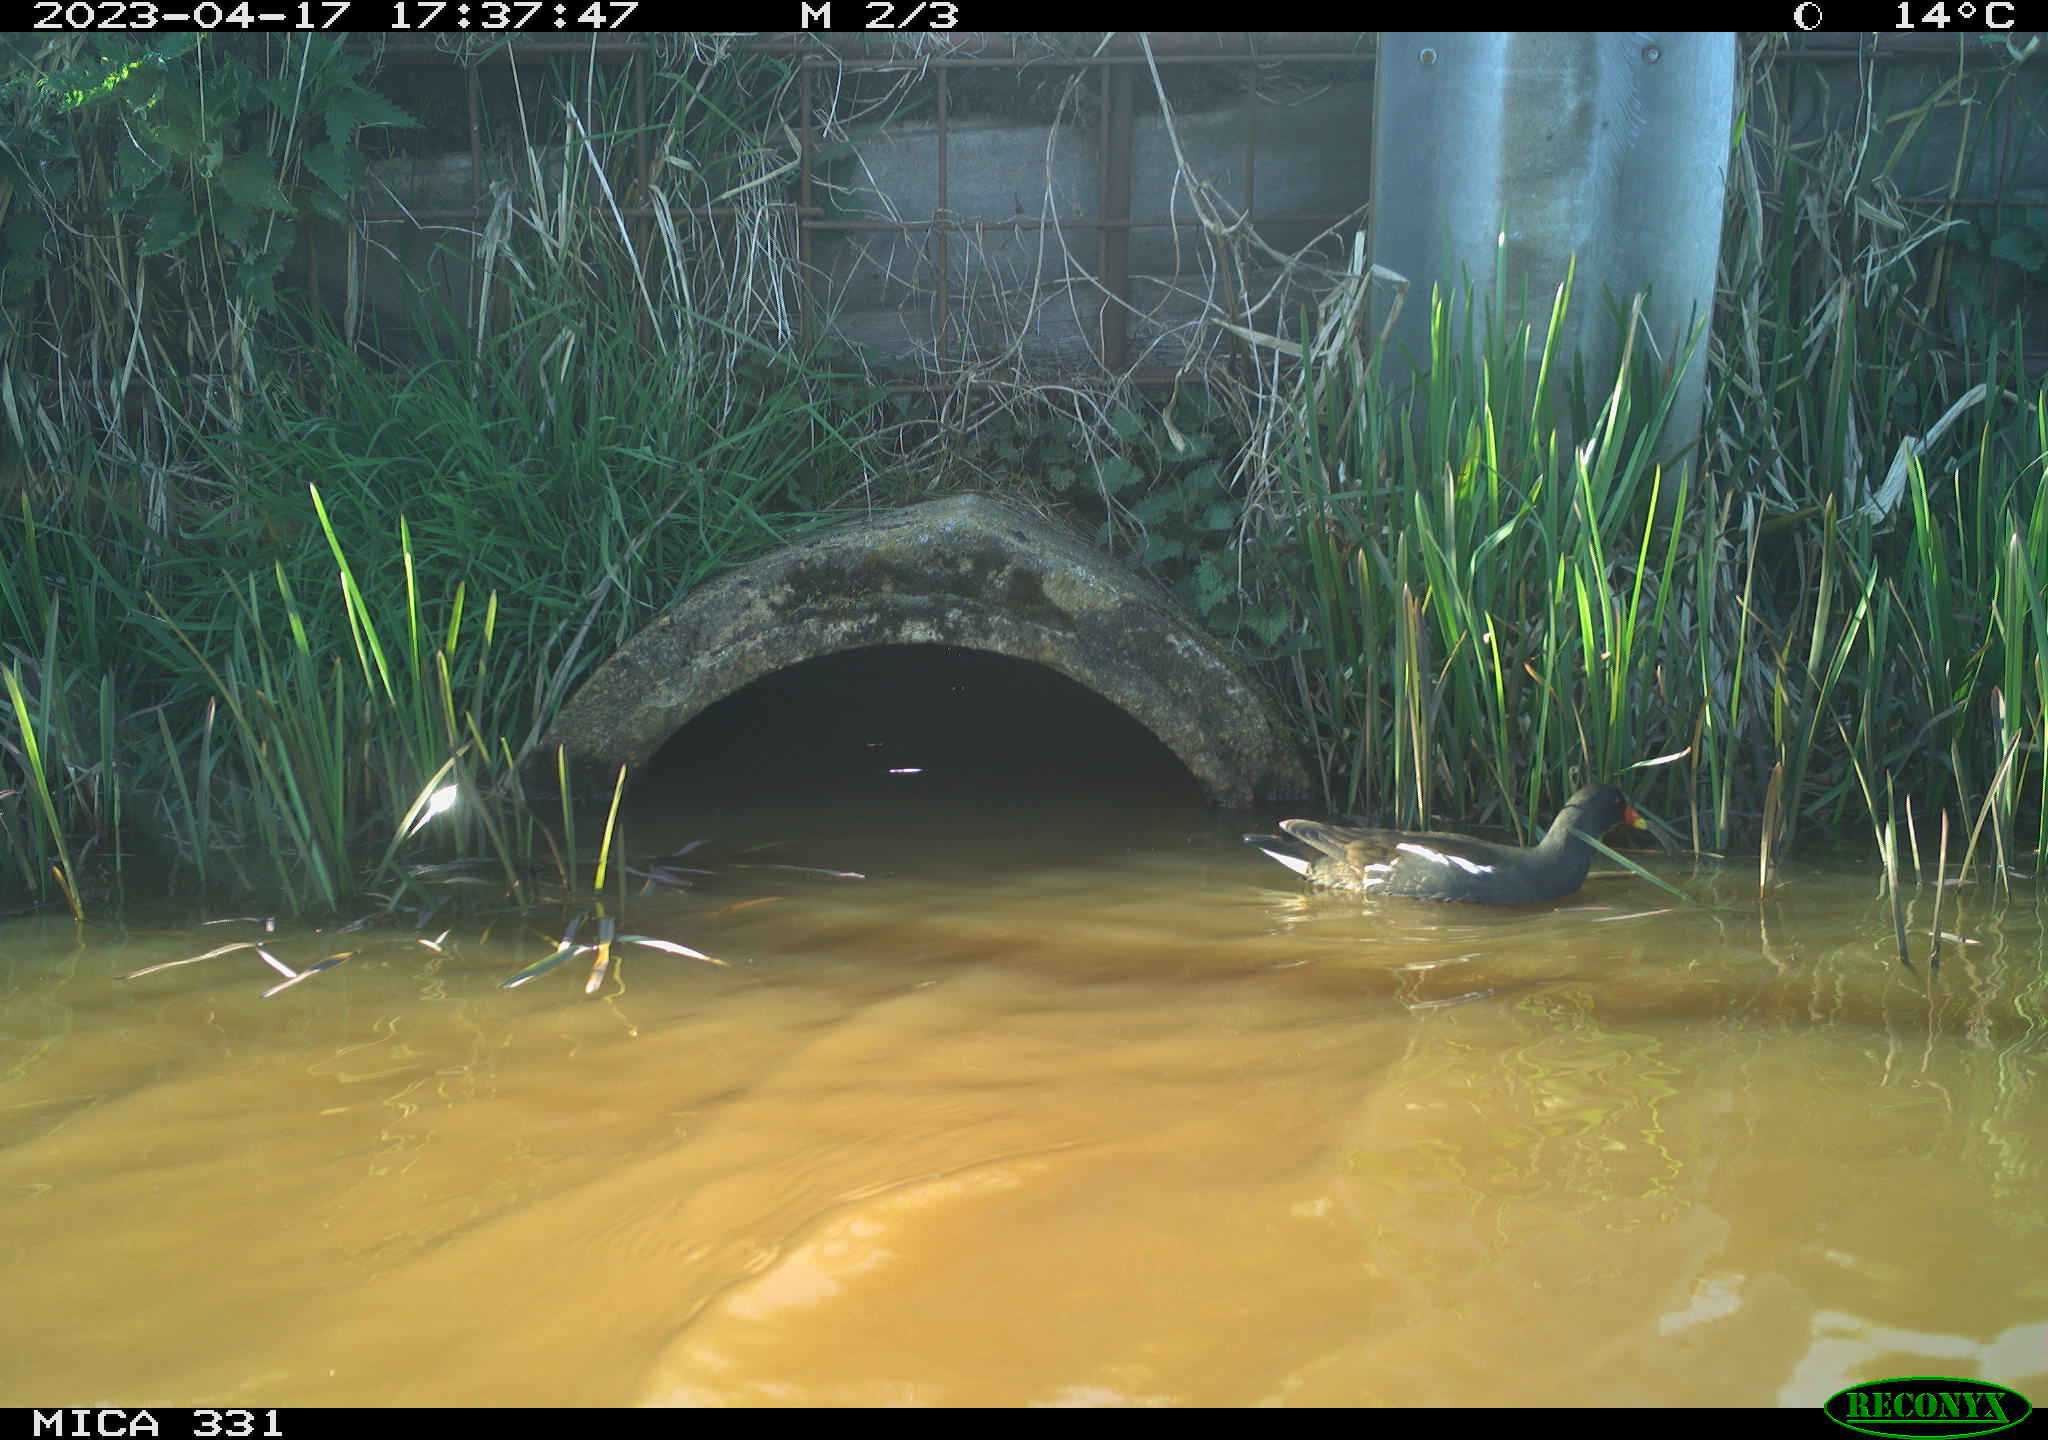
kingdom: Animalia
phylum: Chordata
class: Aves
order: Gruiformes
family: Rallidae
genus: Gallinula
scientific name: Gallinula chloropus
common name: Common moorhen
